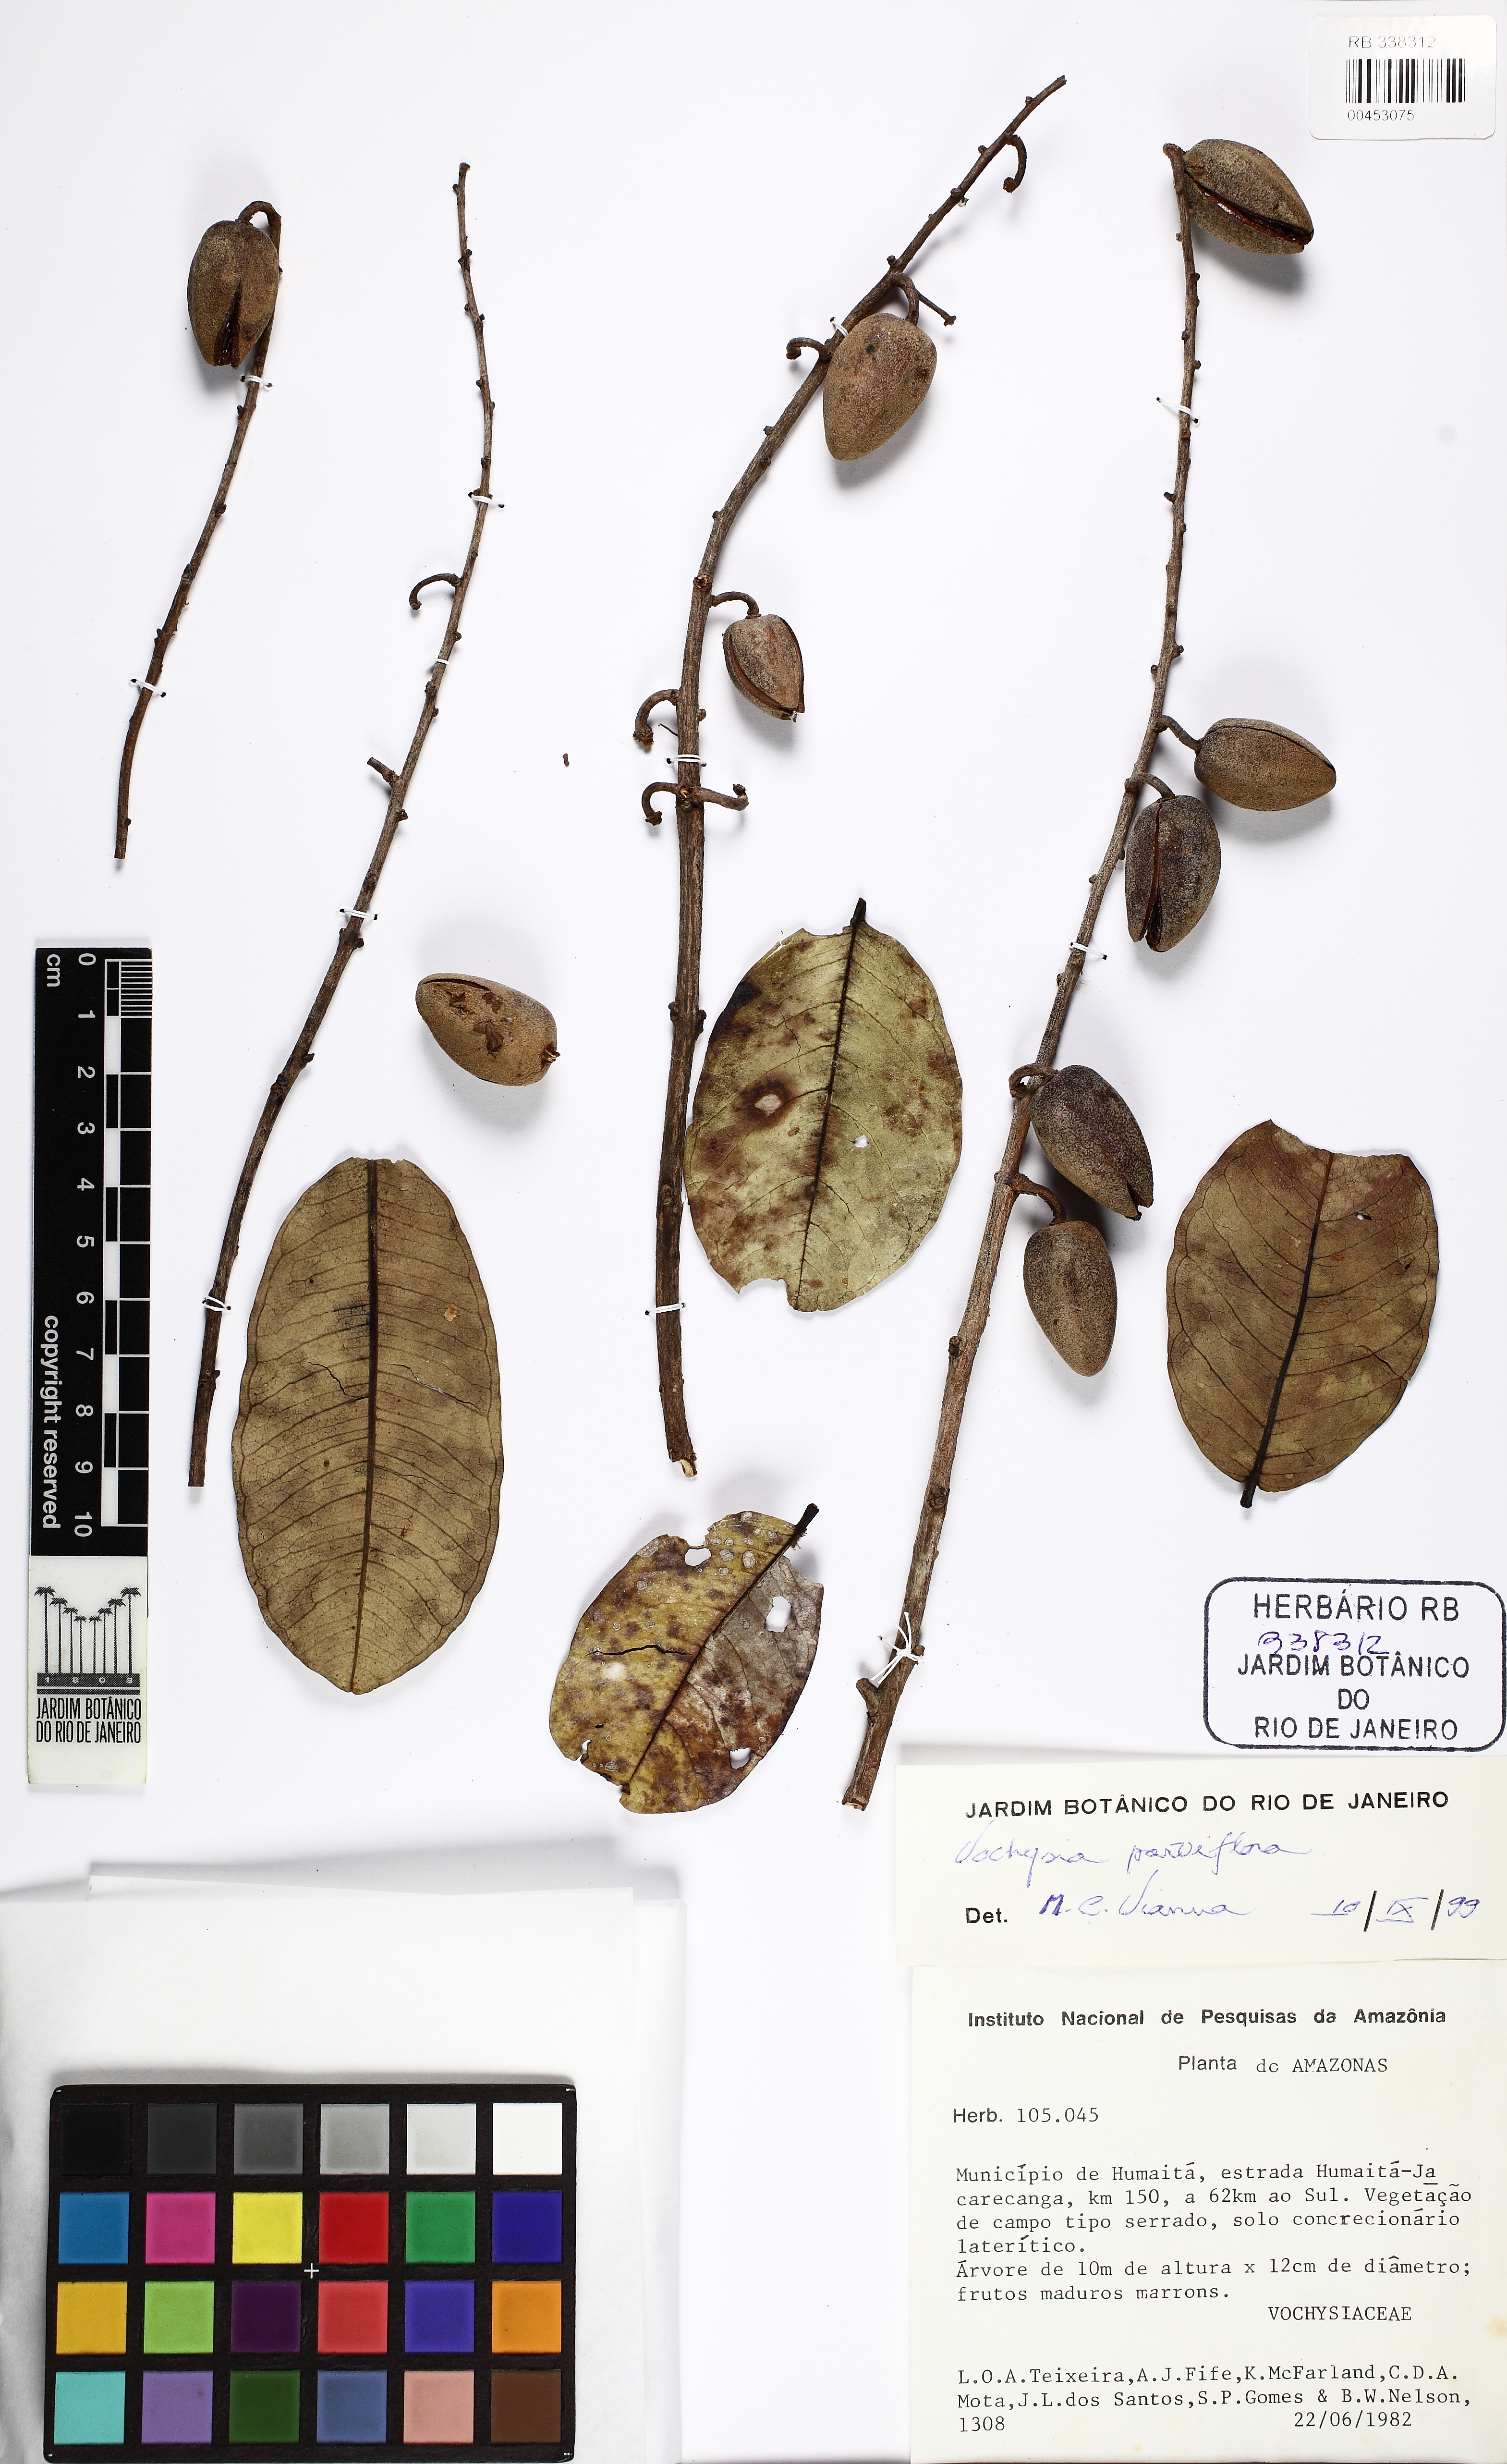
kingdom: Plantae
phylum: Tracheophyta
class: Magnoliopsida
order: Myrtales
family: Vochysiaceae
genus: Qualea
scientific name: Qualea parviflora
